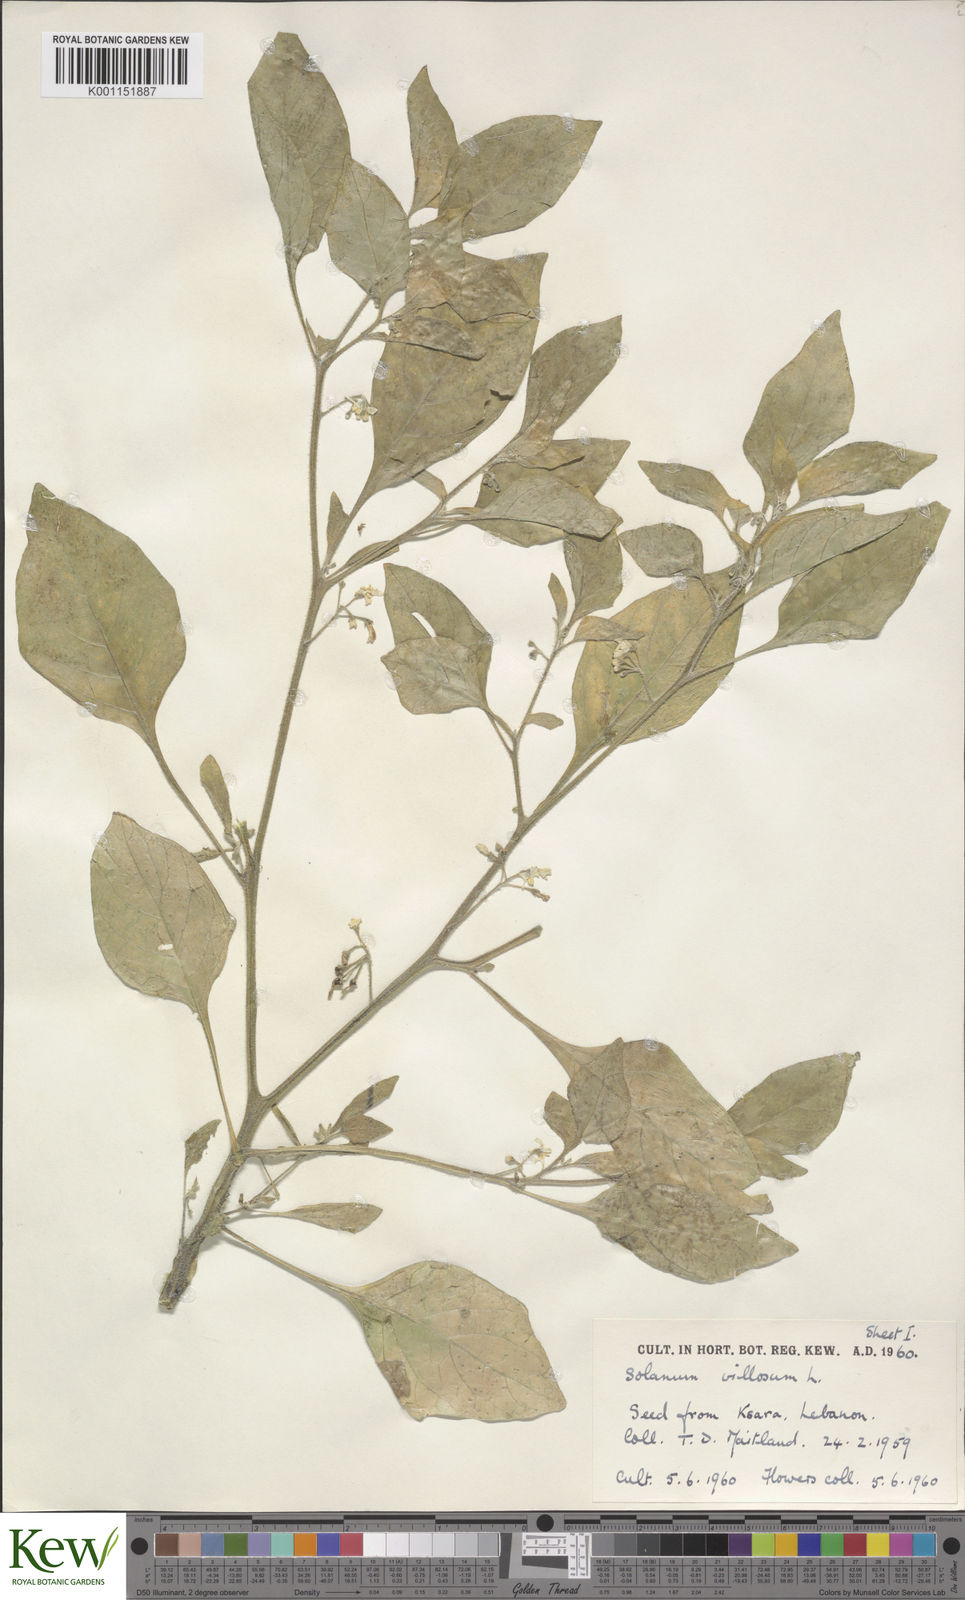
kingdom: Plantae
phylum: Tracheophyta
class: Magnoliopsida
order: Solanales
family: Solanaceae
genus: Solanum
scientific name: Solanum villosum
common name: Red nightshade
